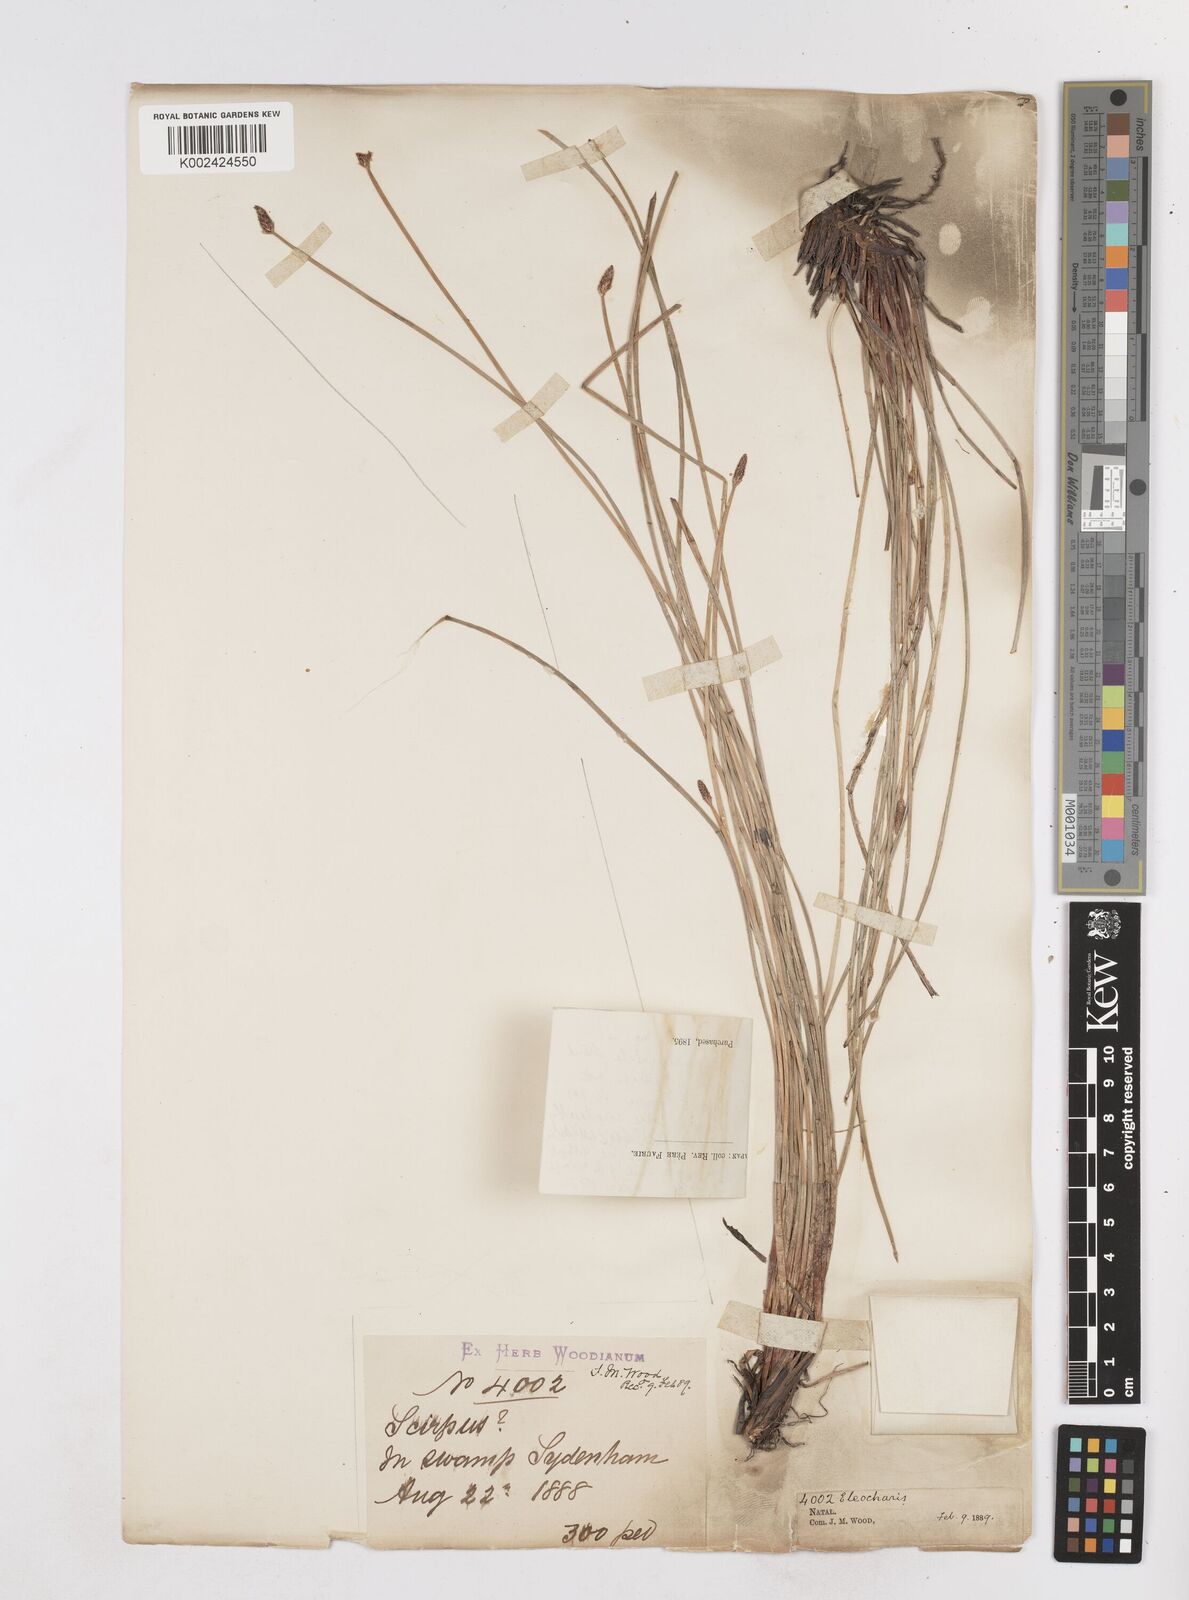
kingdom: Plantae
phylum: Tracheophyta
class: Liliopsida
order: Poales
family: Cyperaceae
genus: Eleocharis
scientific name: Eleocharis
